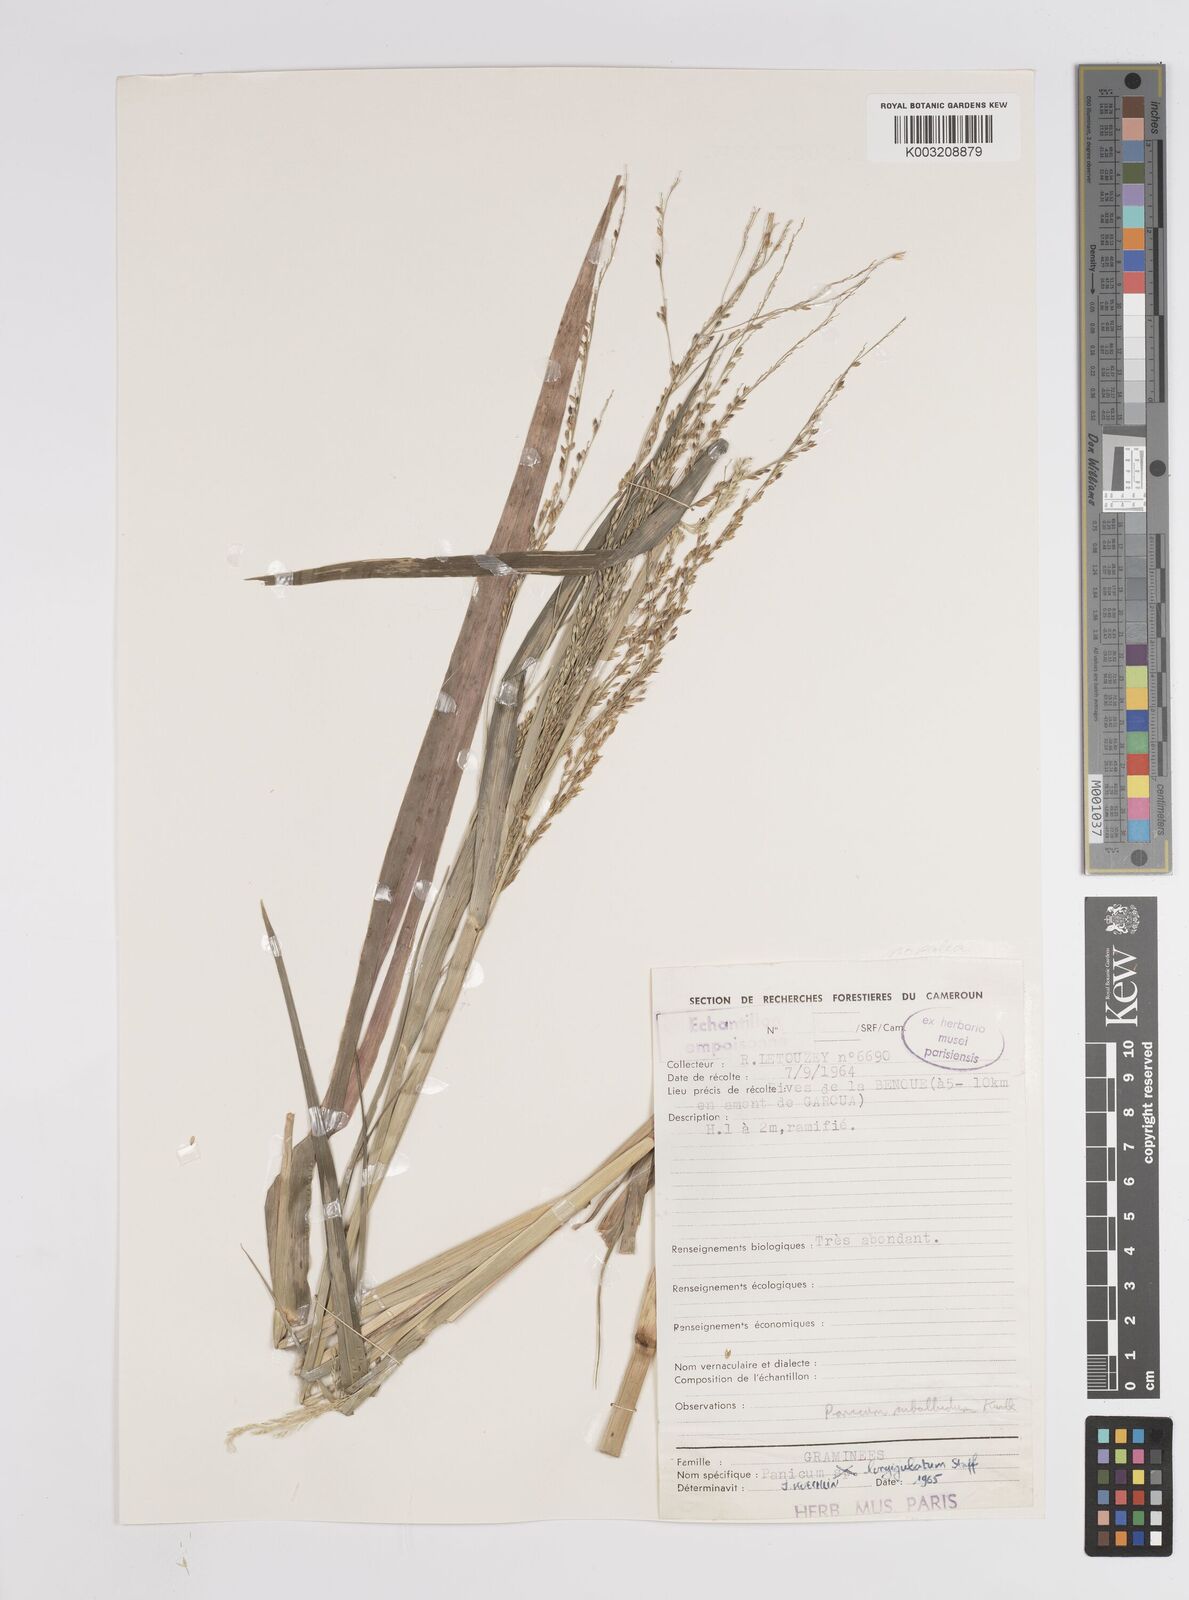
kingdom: Plantae
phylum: Tracheophyta
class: Liliopsida
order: Poales
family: Poaceae
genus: Panicum
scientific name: Panicum subalbidum
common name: Elbow buffalo grass
